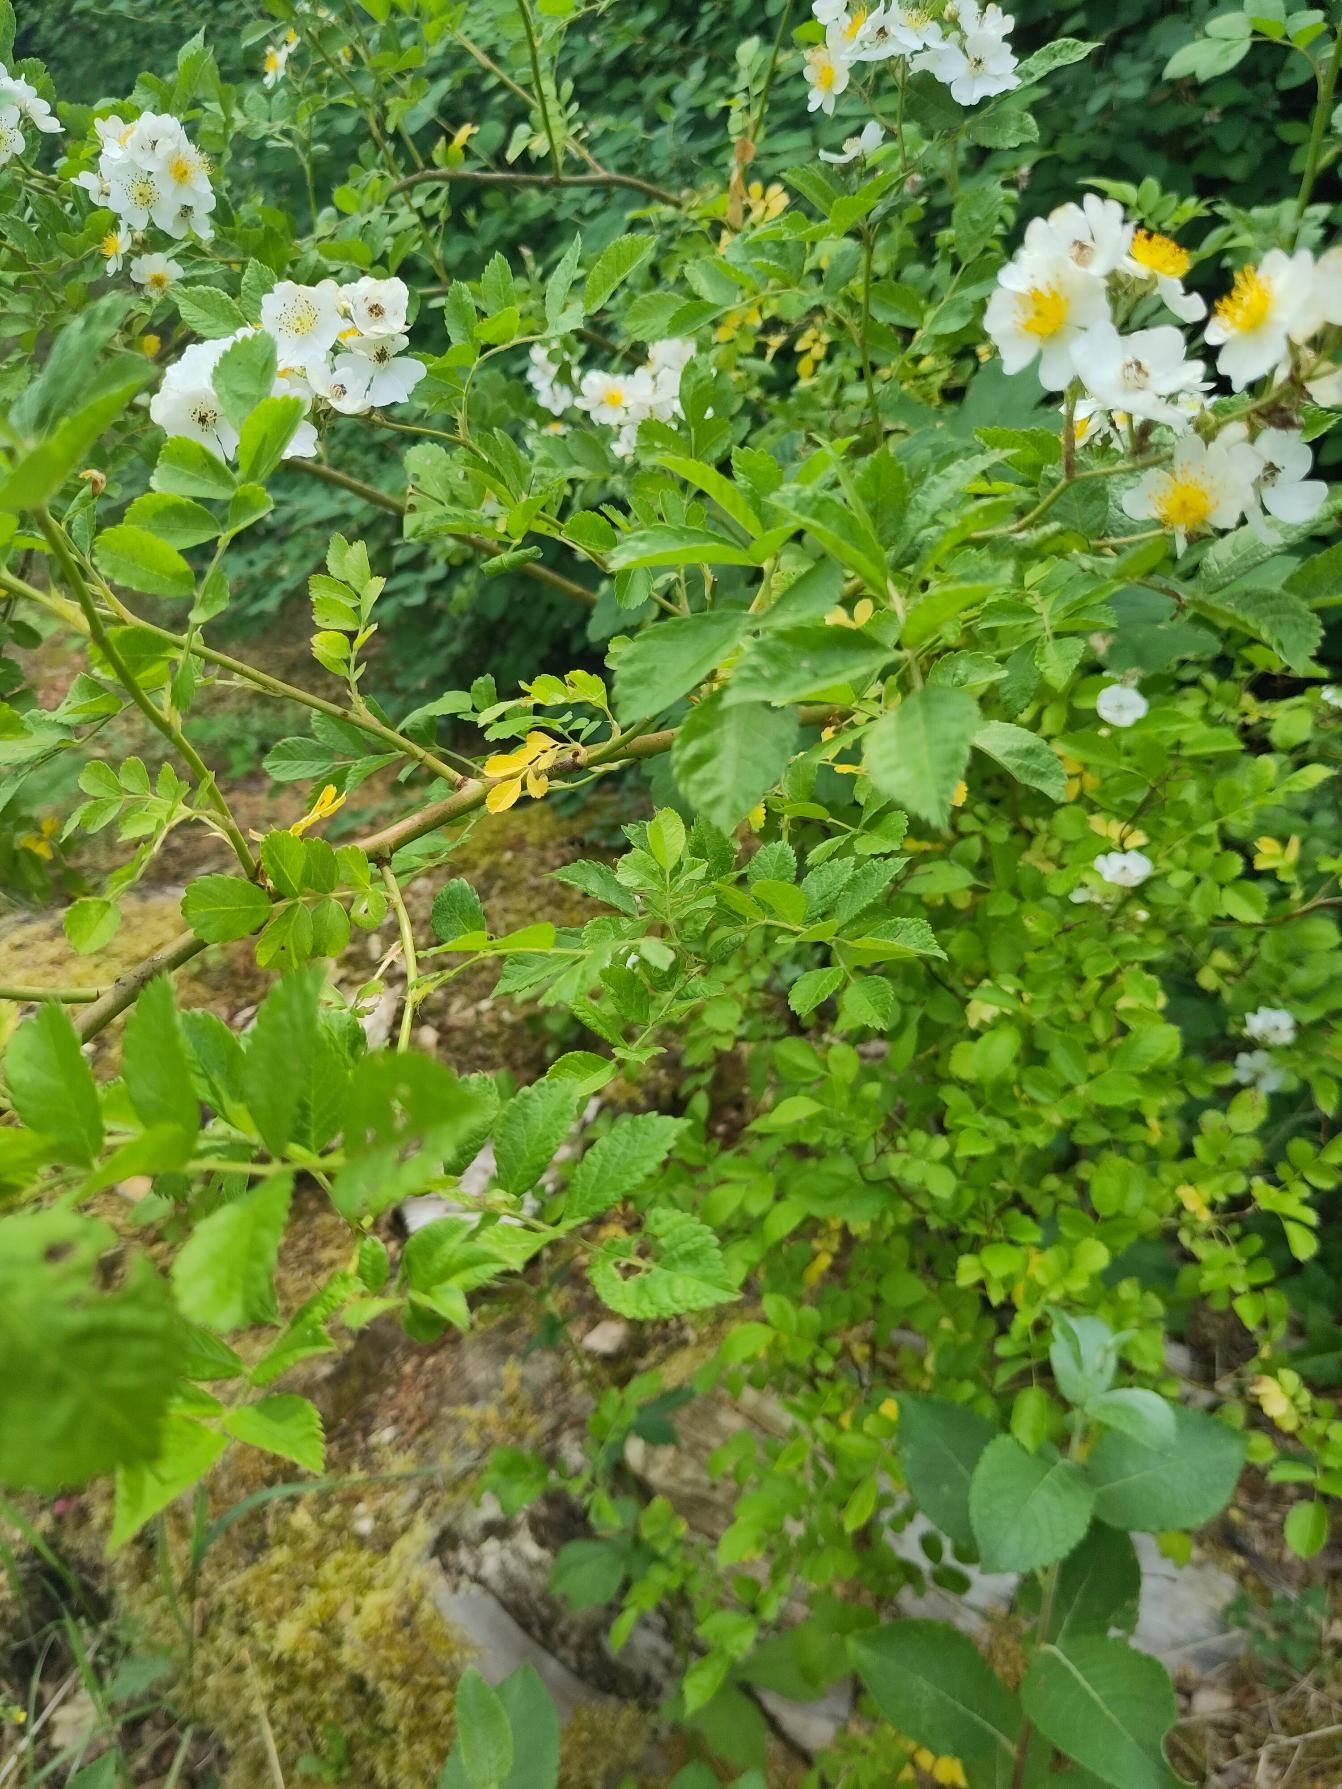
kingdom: Plantae
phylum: Tracheophyta
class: Magnoliopsida
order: Rosales
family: Rosaceae
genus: Rosa
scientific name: Rosa multiflora
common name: Mangeblomstret rose
